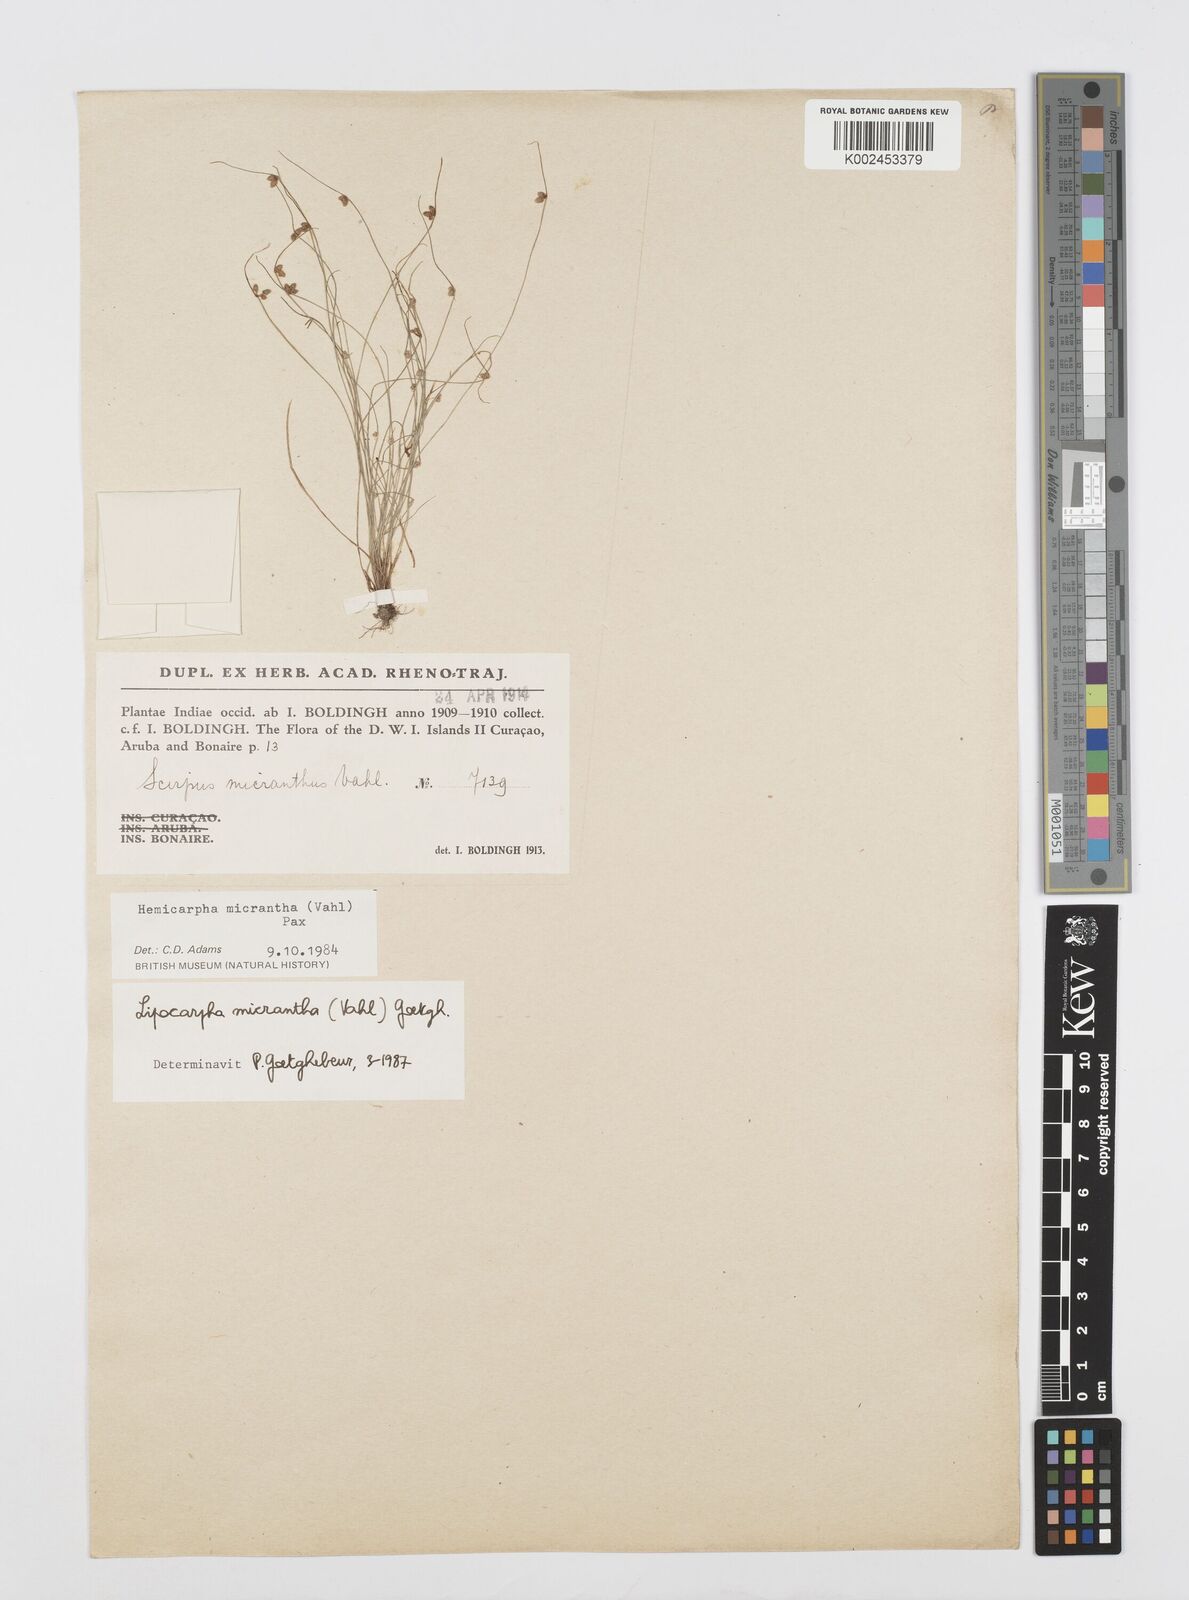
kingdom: Plantae
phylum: Tracheophyta
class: Liliopsida
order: Poales
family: Cyperaceae
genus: Cyperus
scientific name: Cyperus
